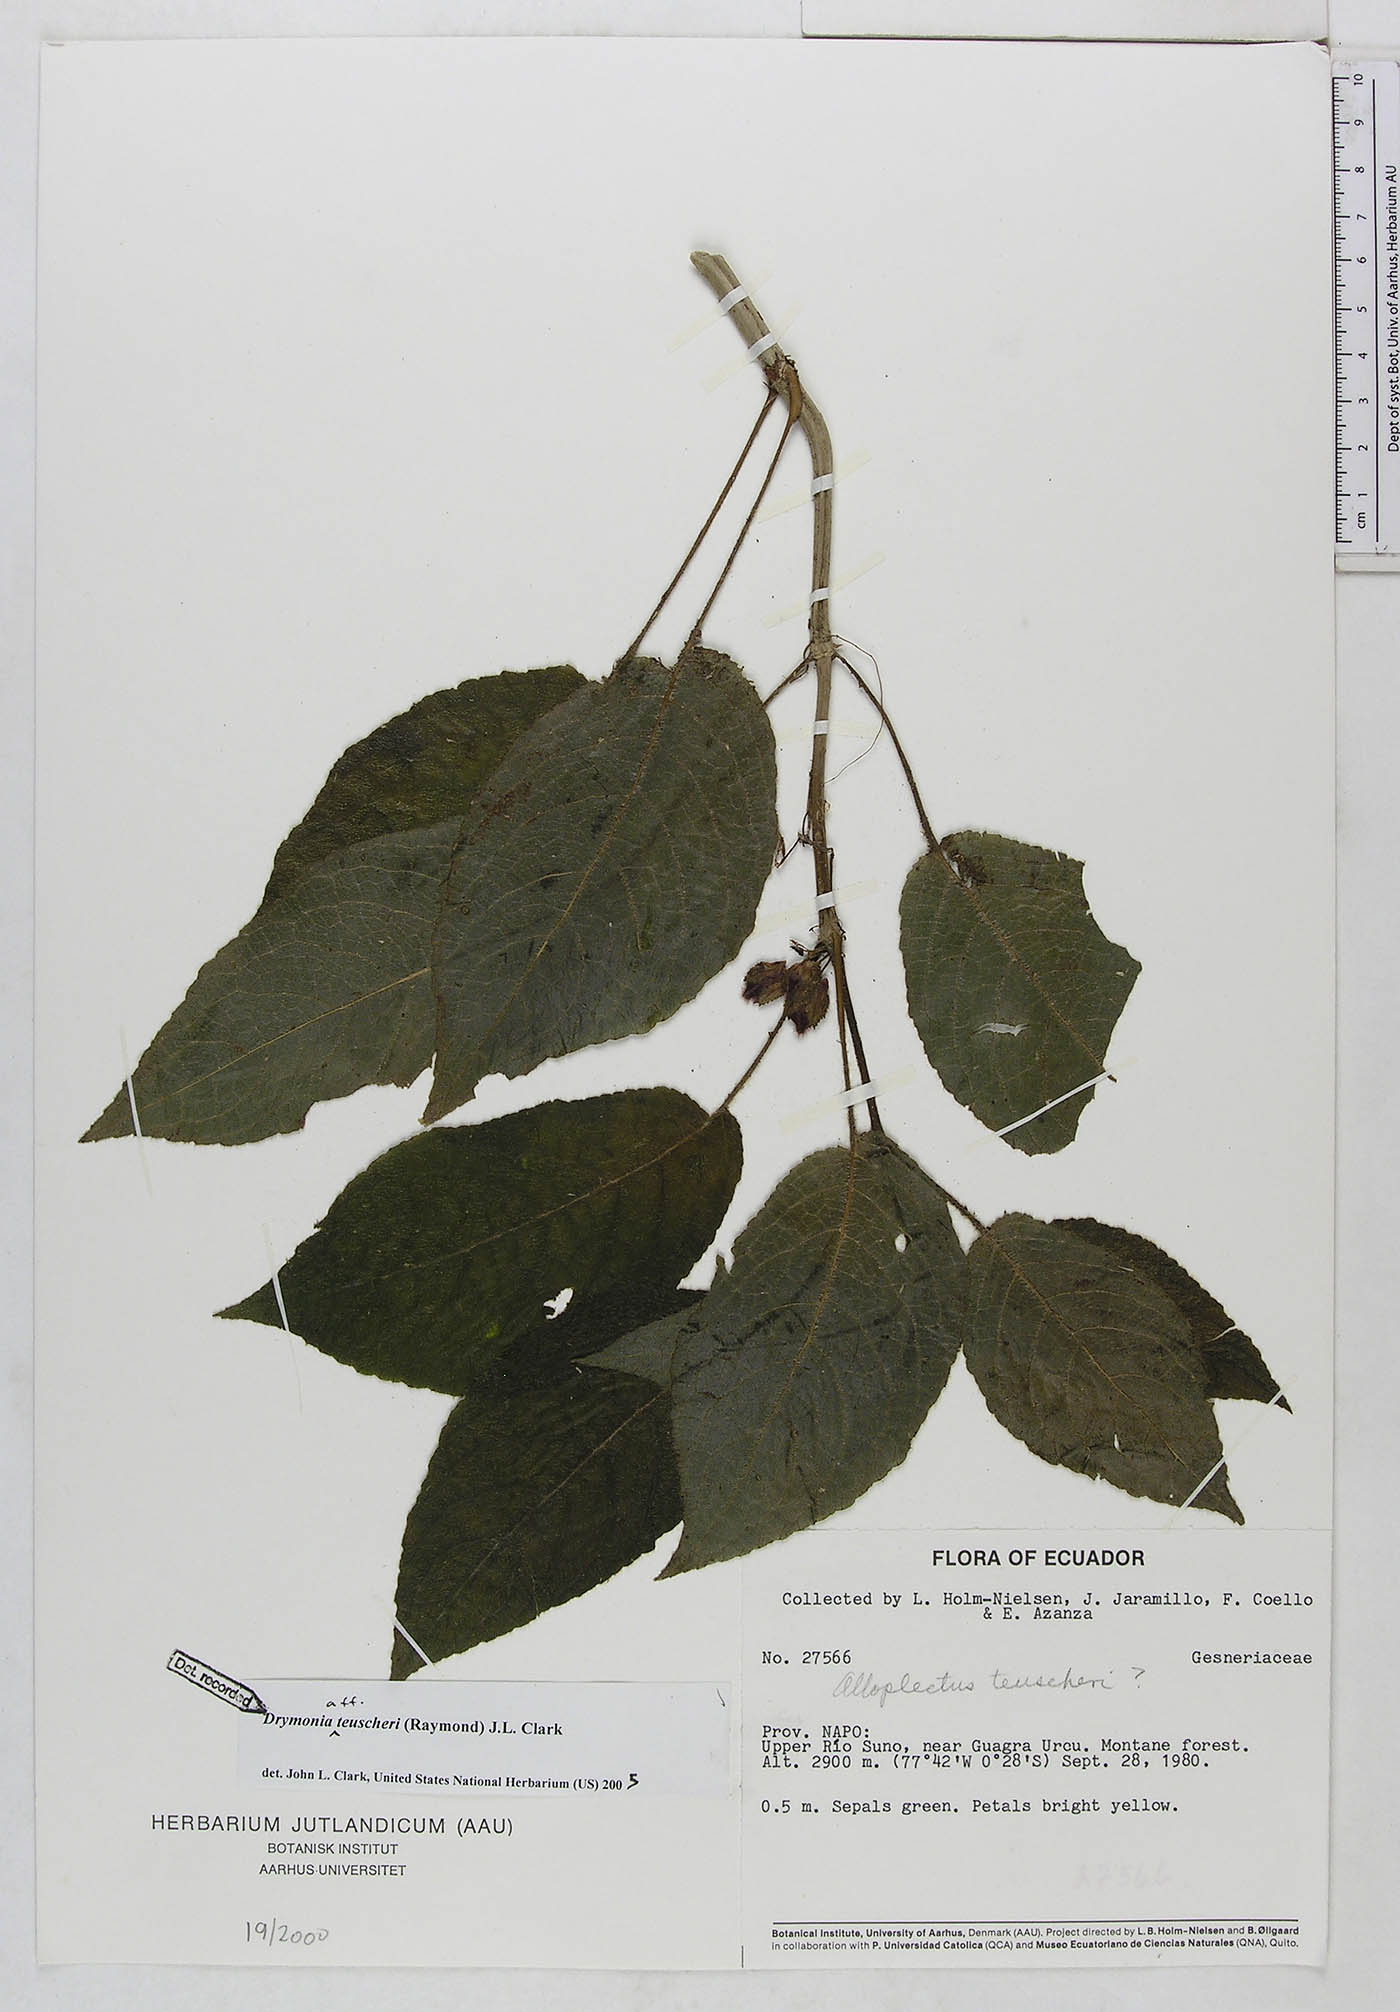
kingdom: Plantae
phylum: Tracheophyta
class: Magnoliopsida
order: Lamiales
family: Gesneriaceae
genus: Drymonia
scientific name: Drymonia teuscheri
